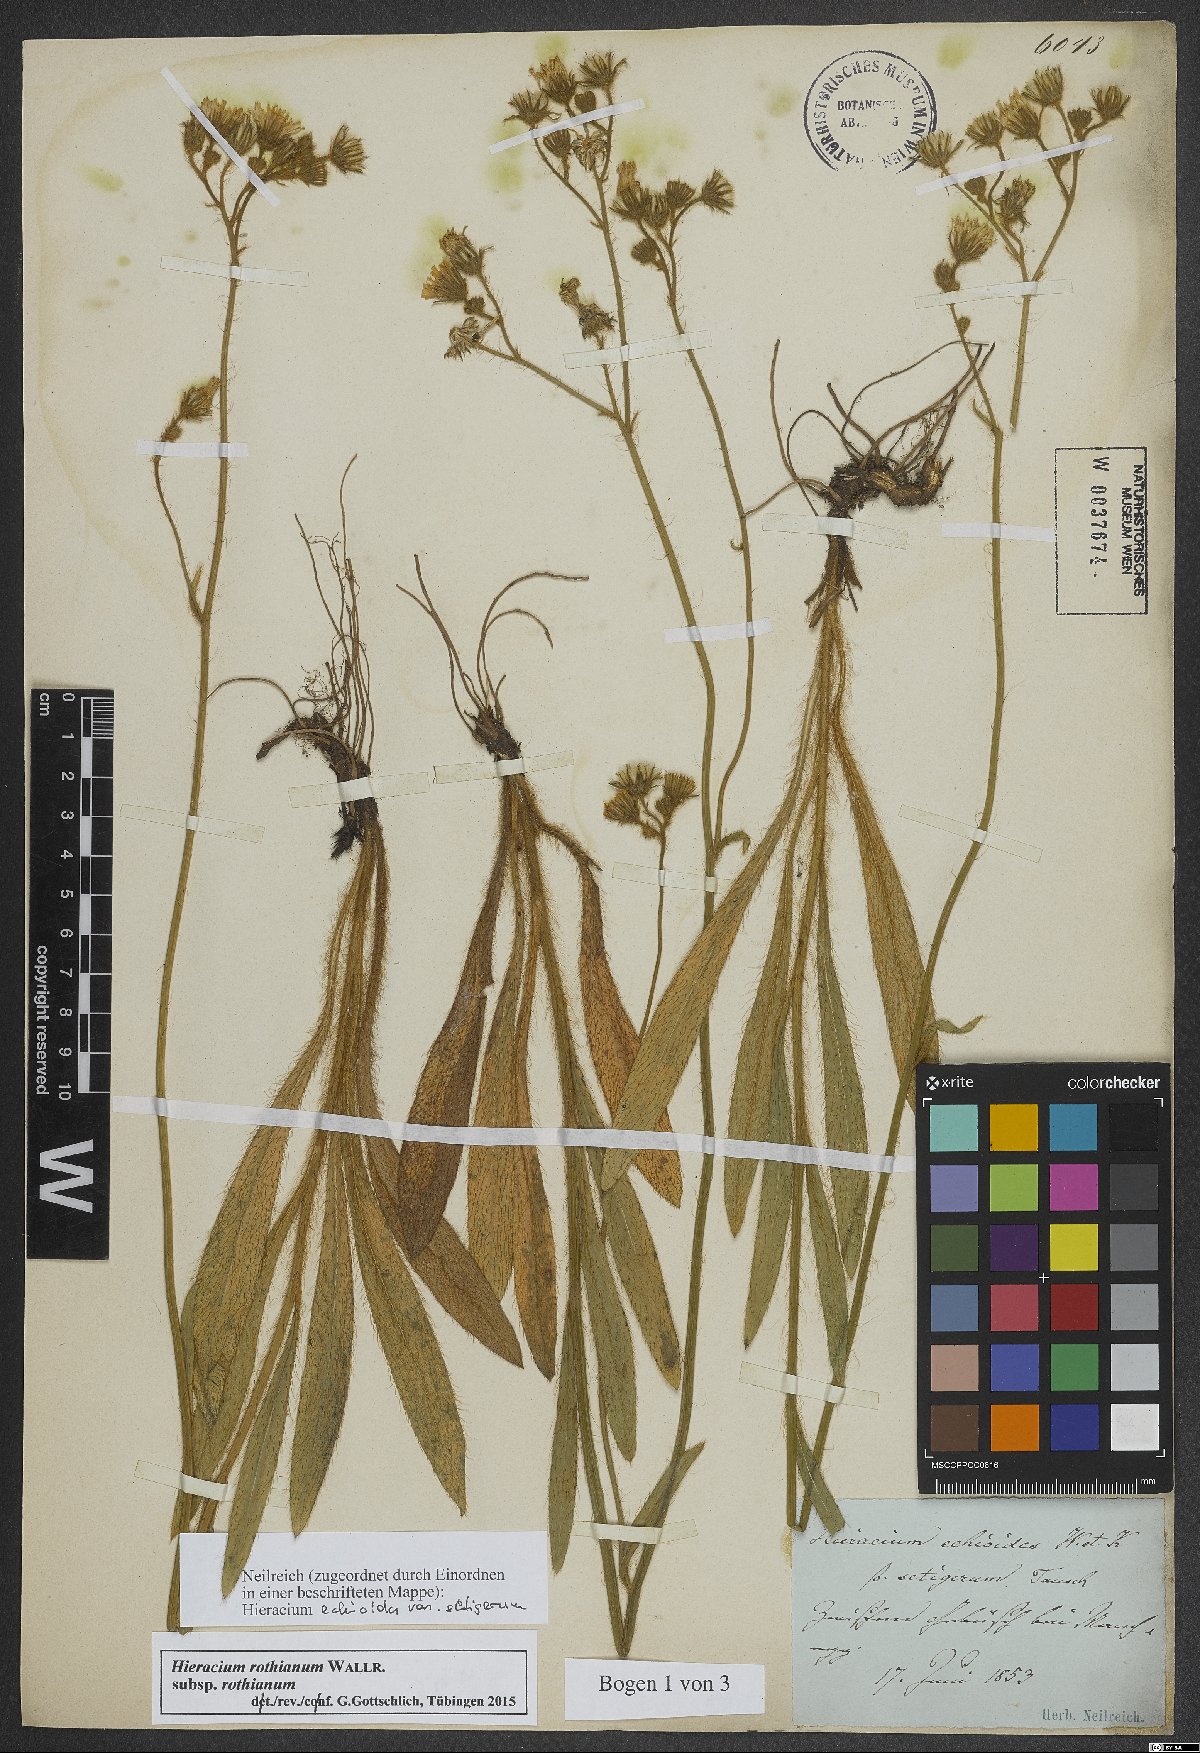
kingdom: Plantae
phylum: Tracheophyta
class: Magnoliopsida
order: Asterales
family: Asteraceae
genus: Pilosella
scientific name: Pilosella rothiana
